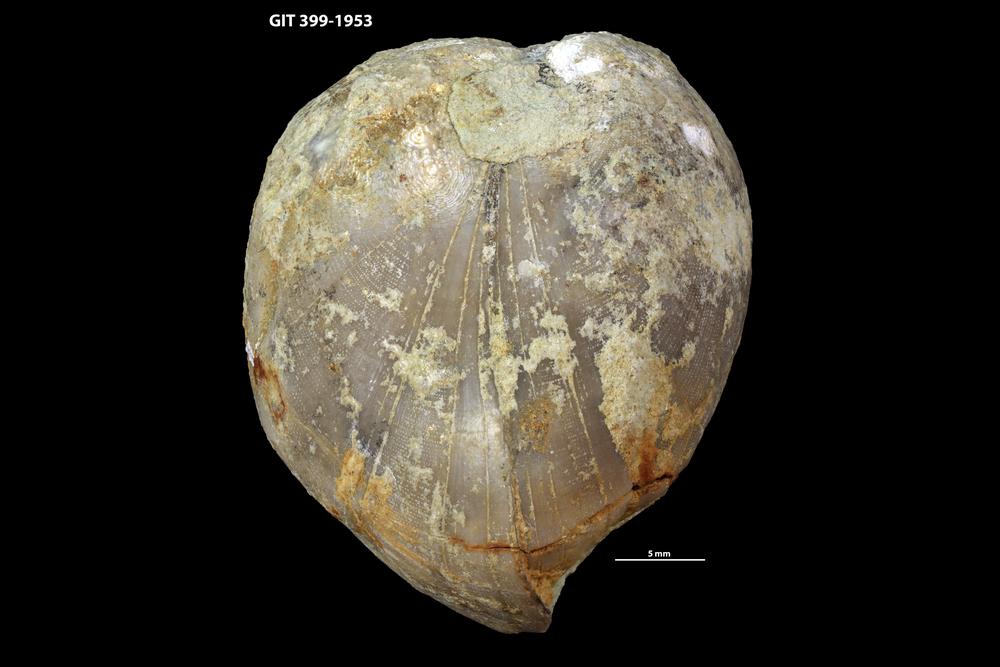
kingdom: Animalia
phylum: Brachiopoda
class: Rhynchonellata
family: Porambonitidae
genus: Porambonites
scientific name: Porambonites
